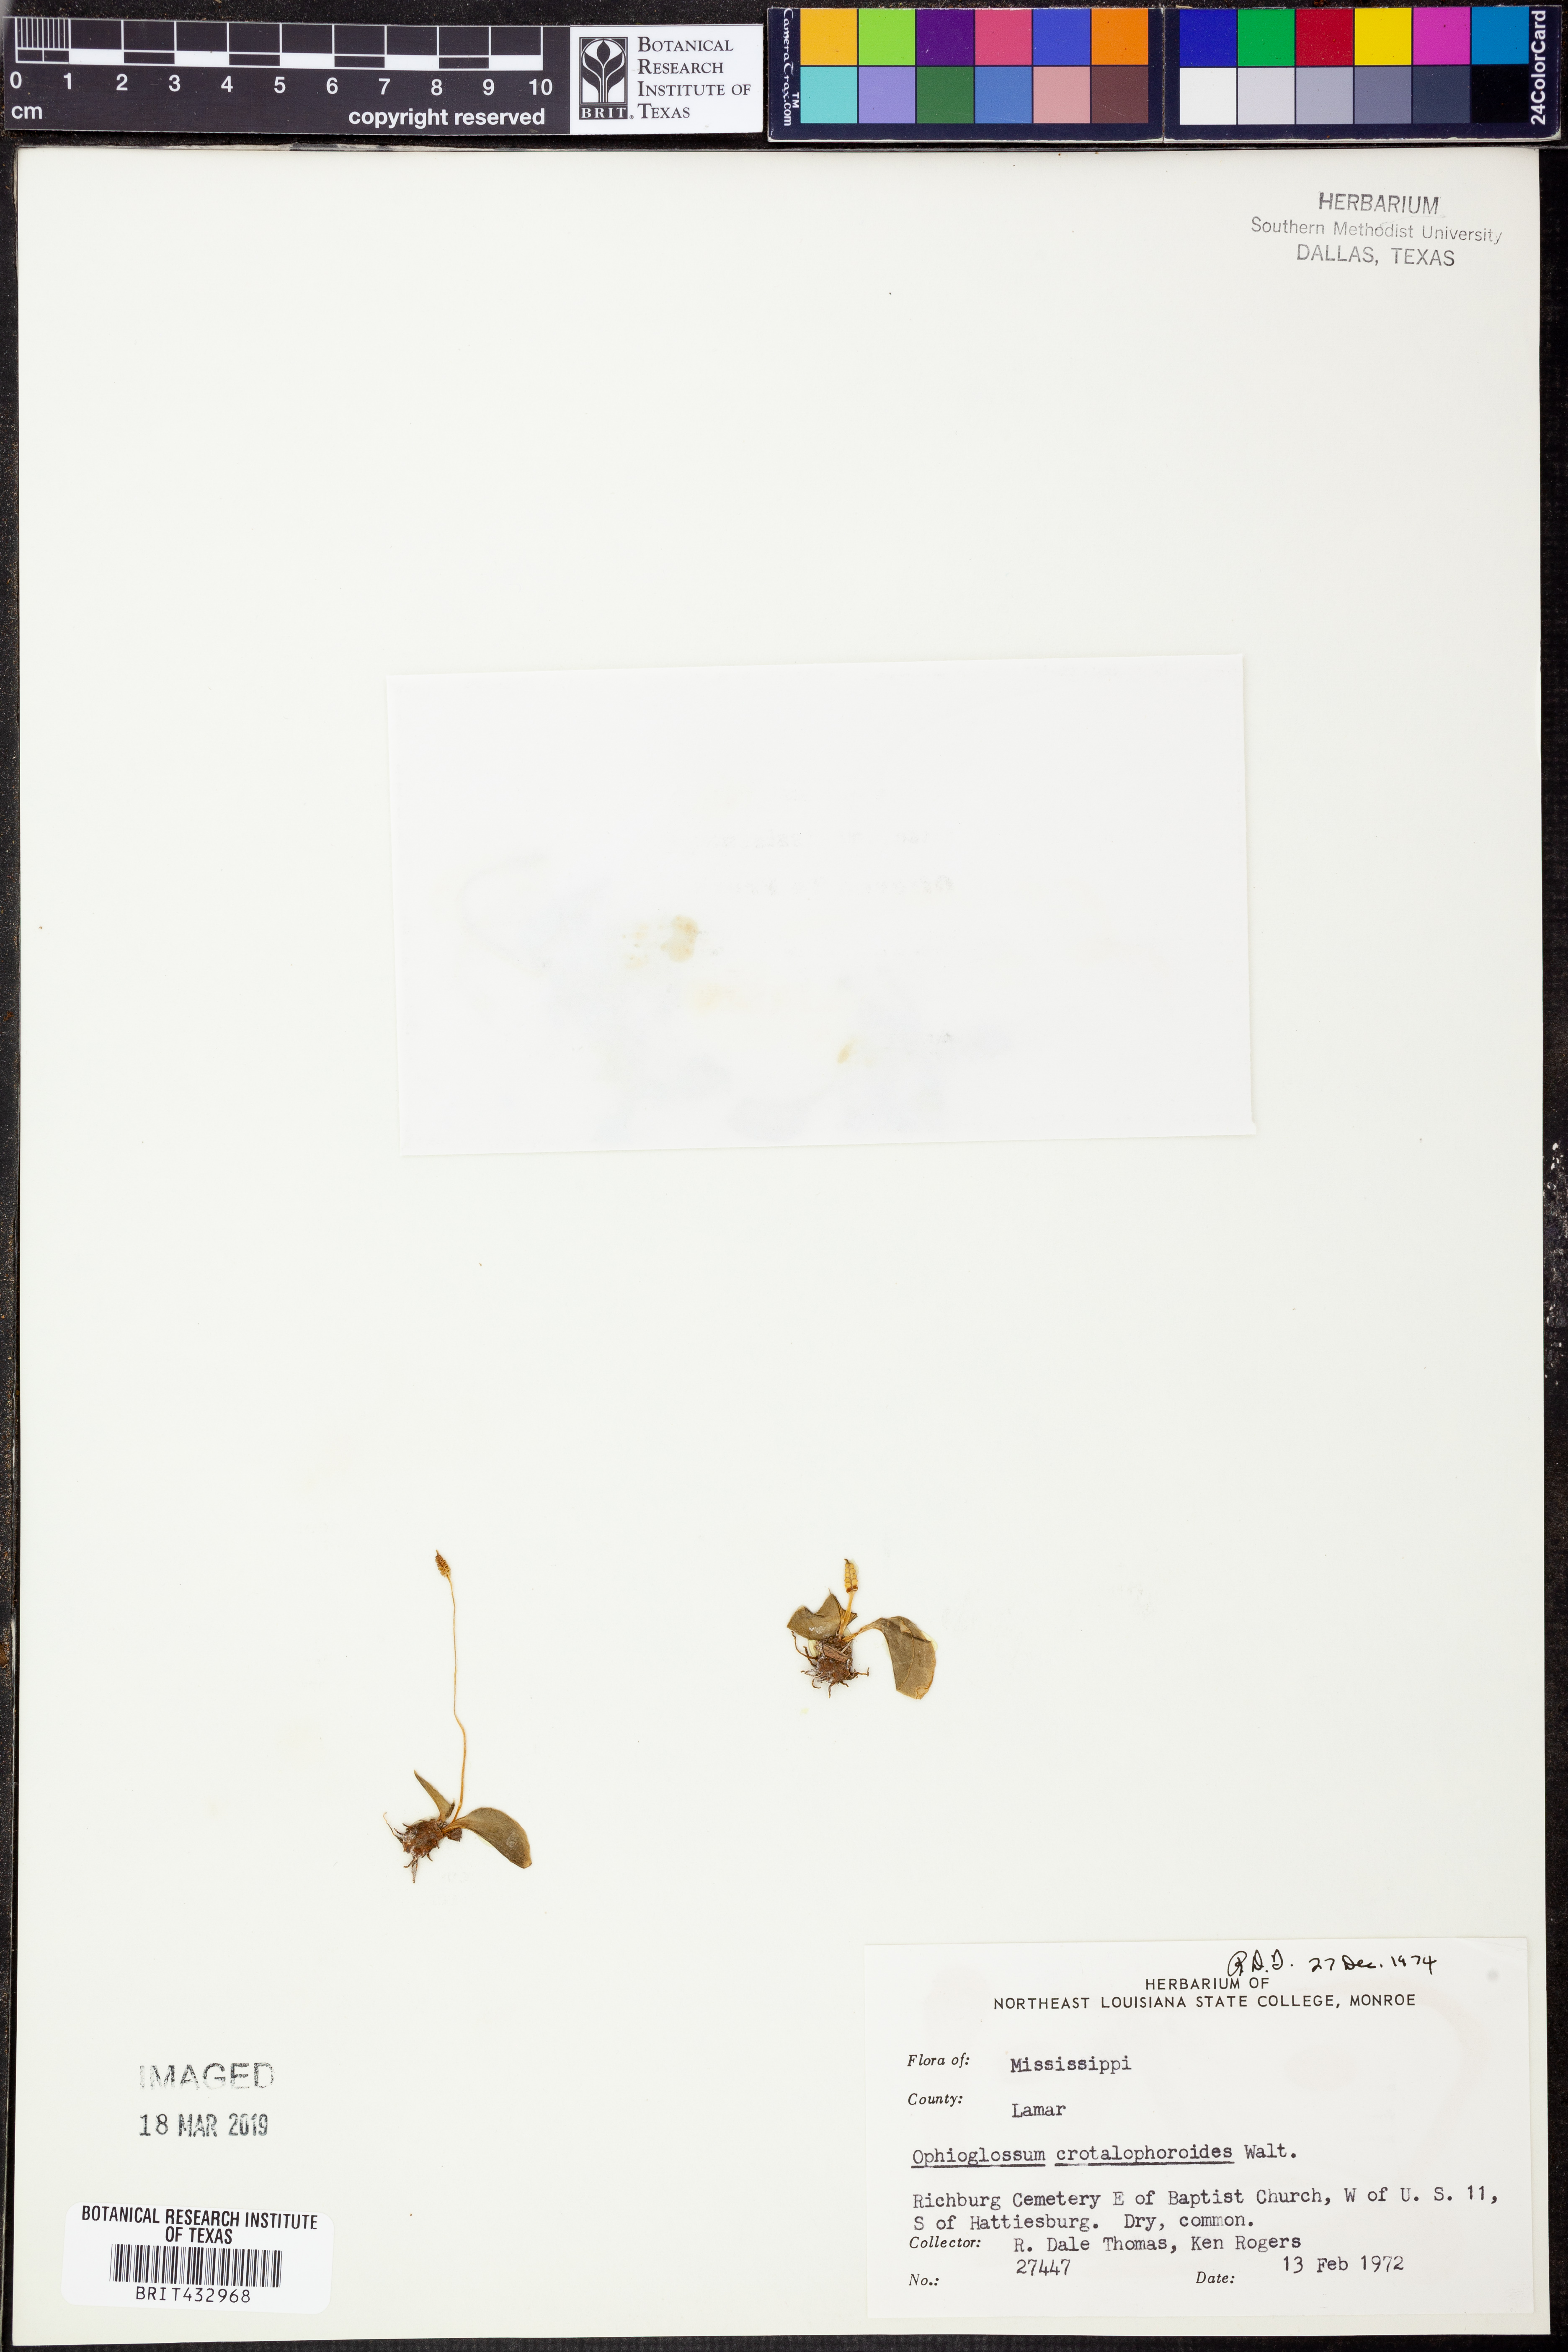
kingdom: Plantae
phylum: Tracheophyta
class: Polypodiopsida
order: Ophioglossales
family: Ophioglossaceae
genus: Ophioglossum
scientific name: Ophioglossum crotalophoroides
